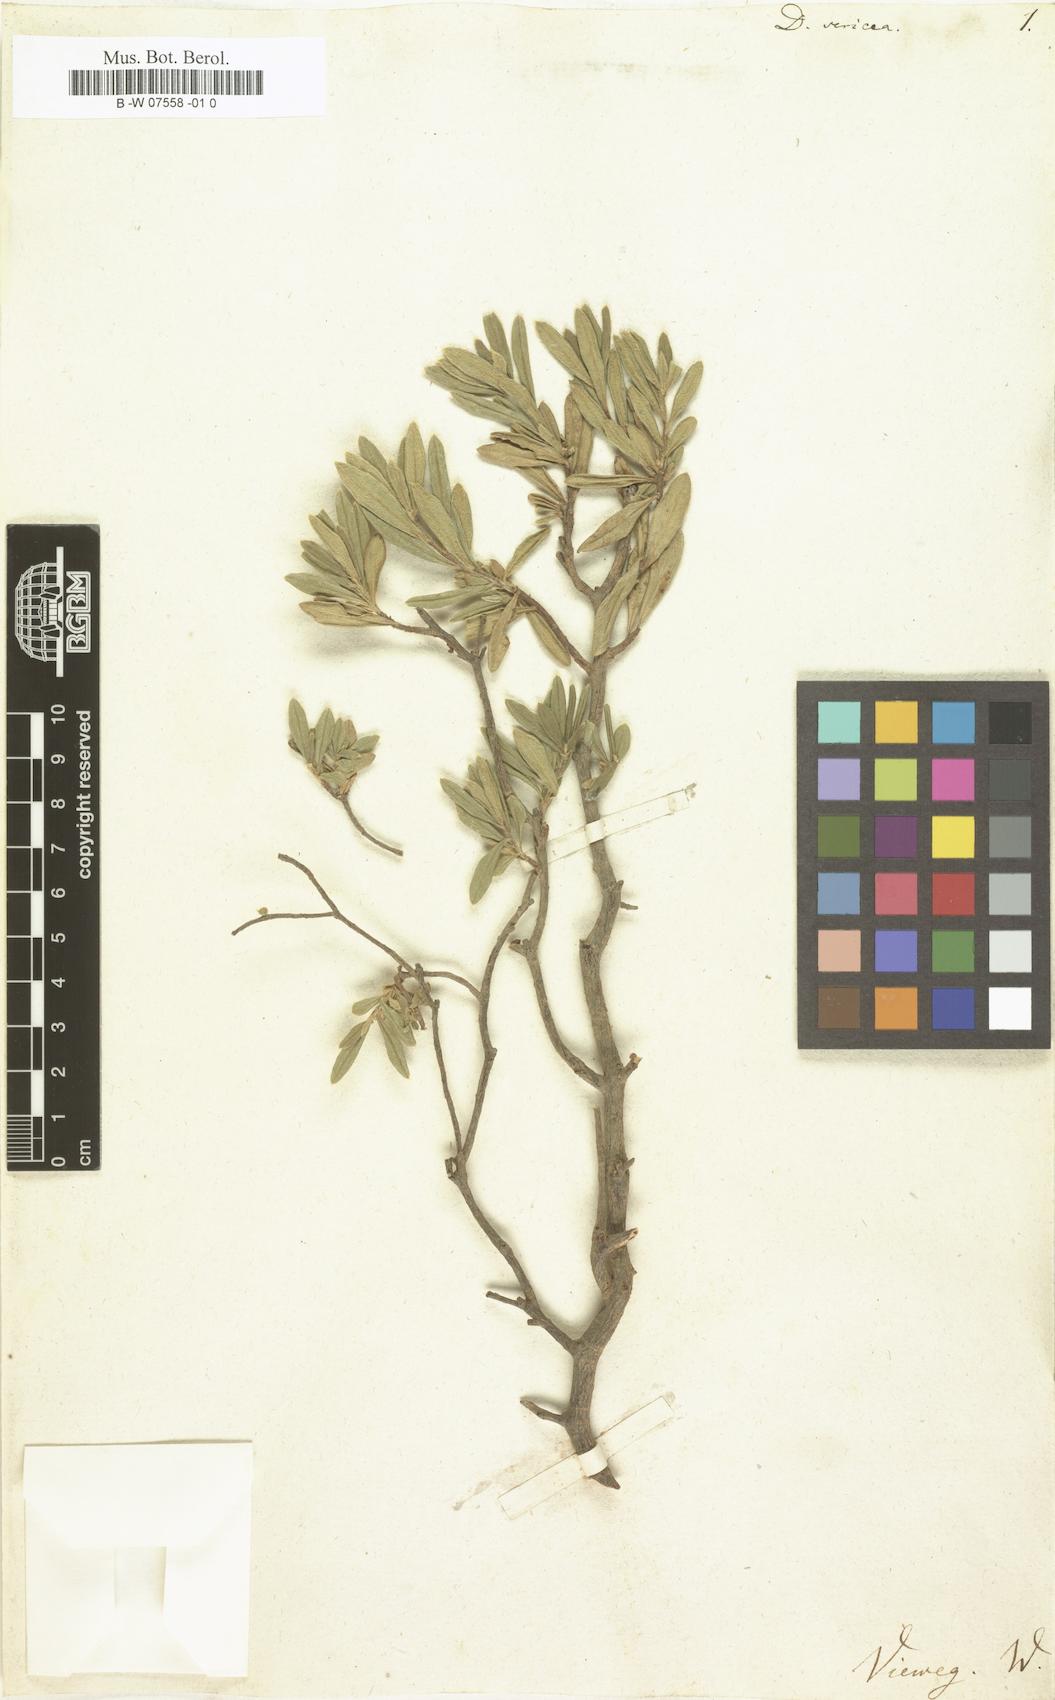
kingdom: Plantae
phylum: Tracheophyta
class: Magnoliopsida
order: Malvales
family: Thymelaeaceae
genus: Daphne
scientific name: Daphne sericea
